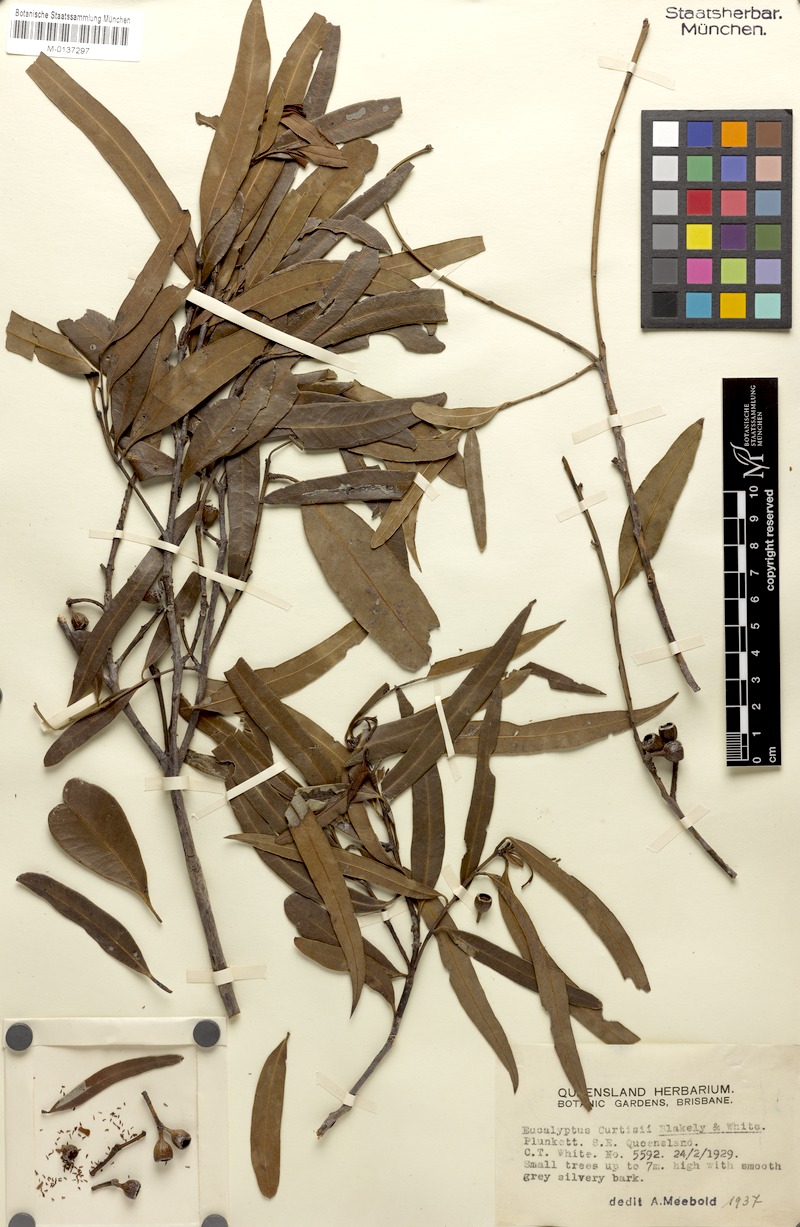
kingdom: Plantae
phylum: Tracheophyta
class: Magnoliopsida
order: Myrtales
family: Myrtaceae
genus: Eucalyptus
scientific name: Eucalyptus curtisii
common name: Plunkett mallee
